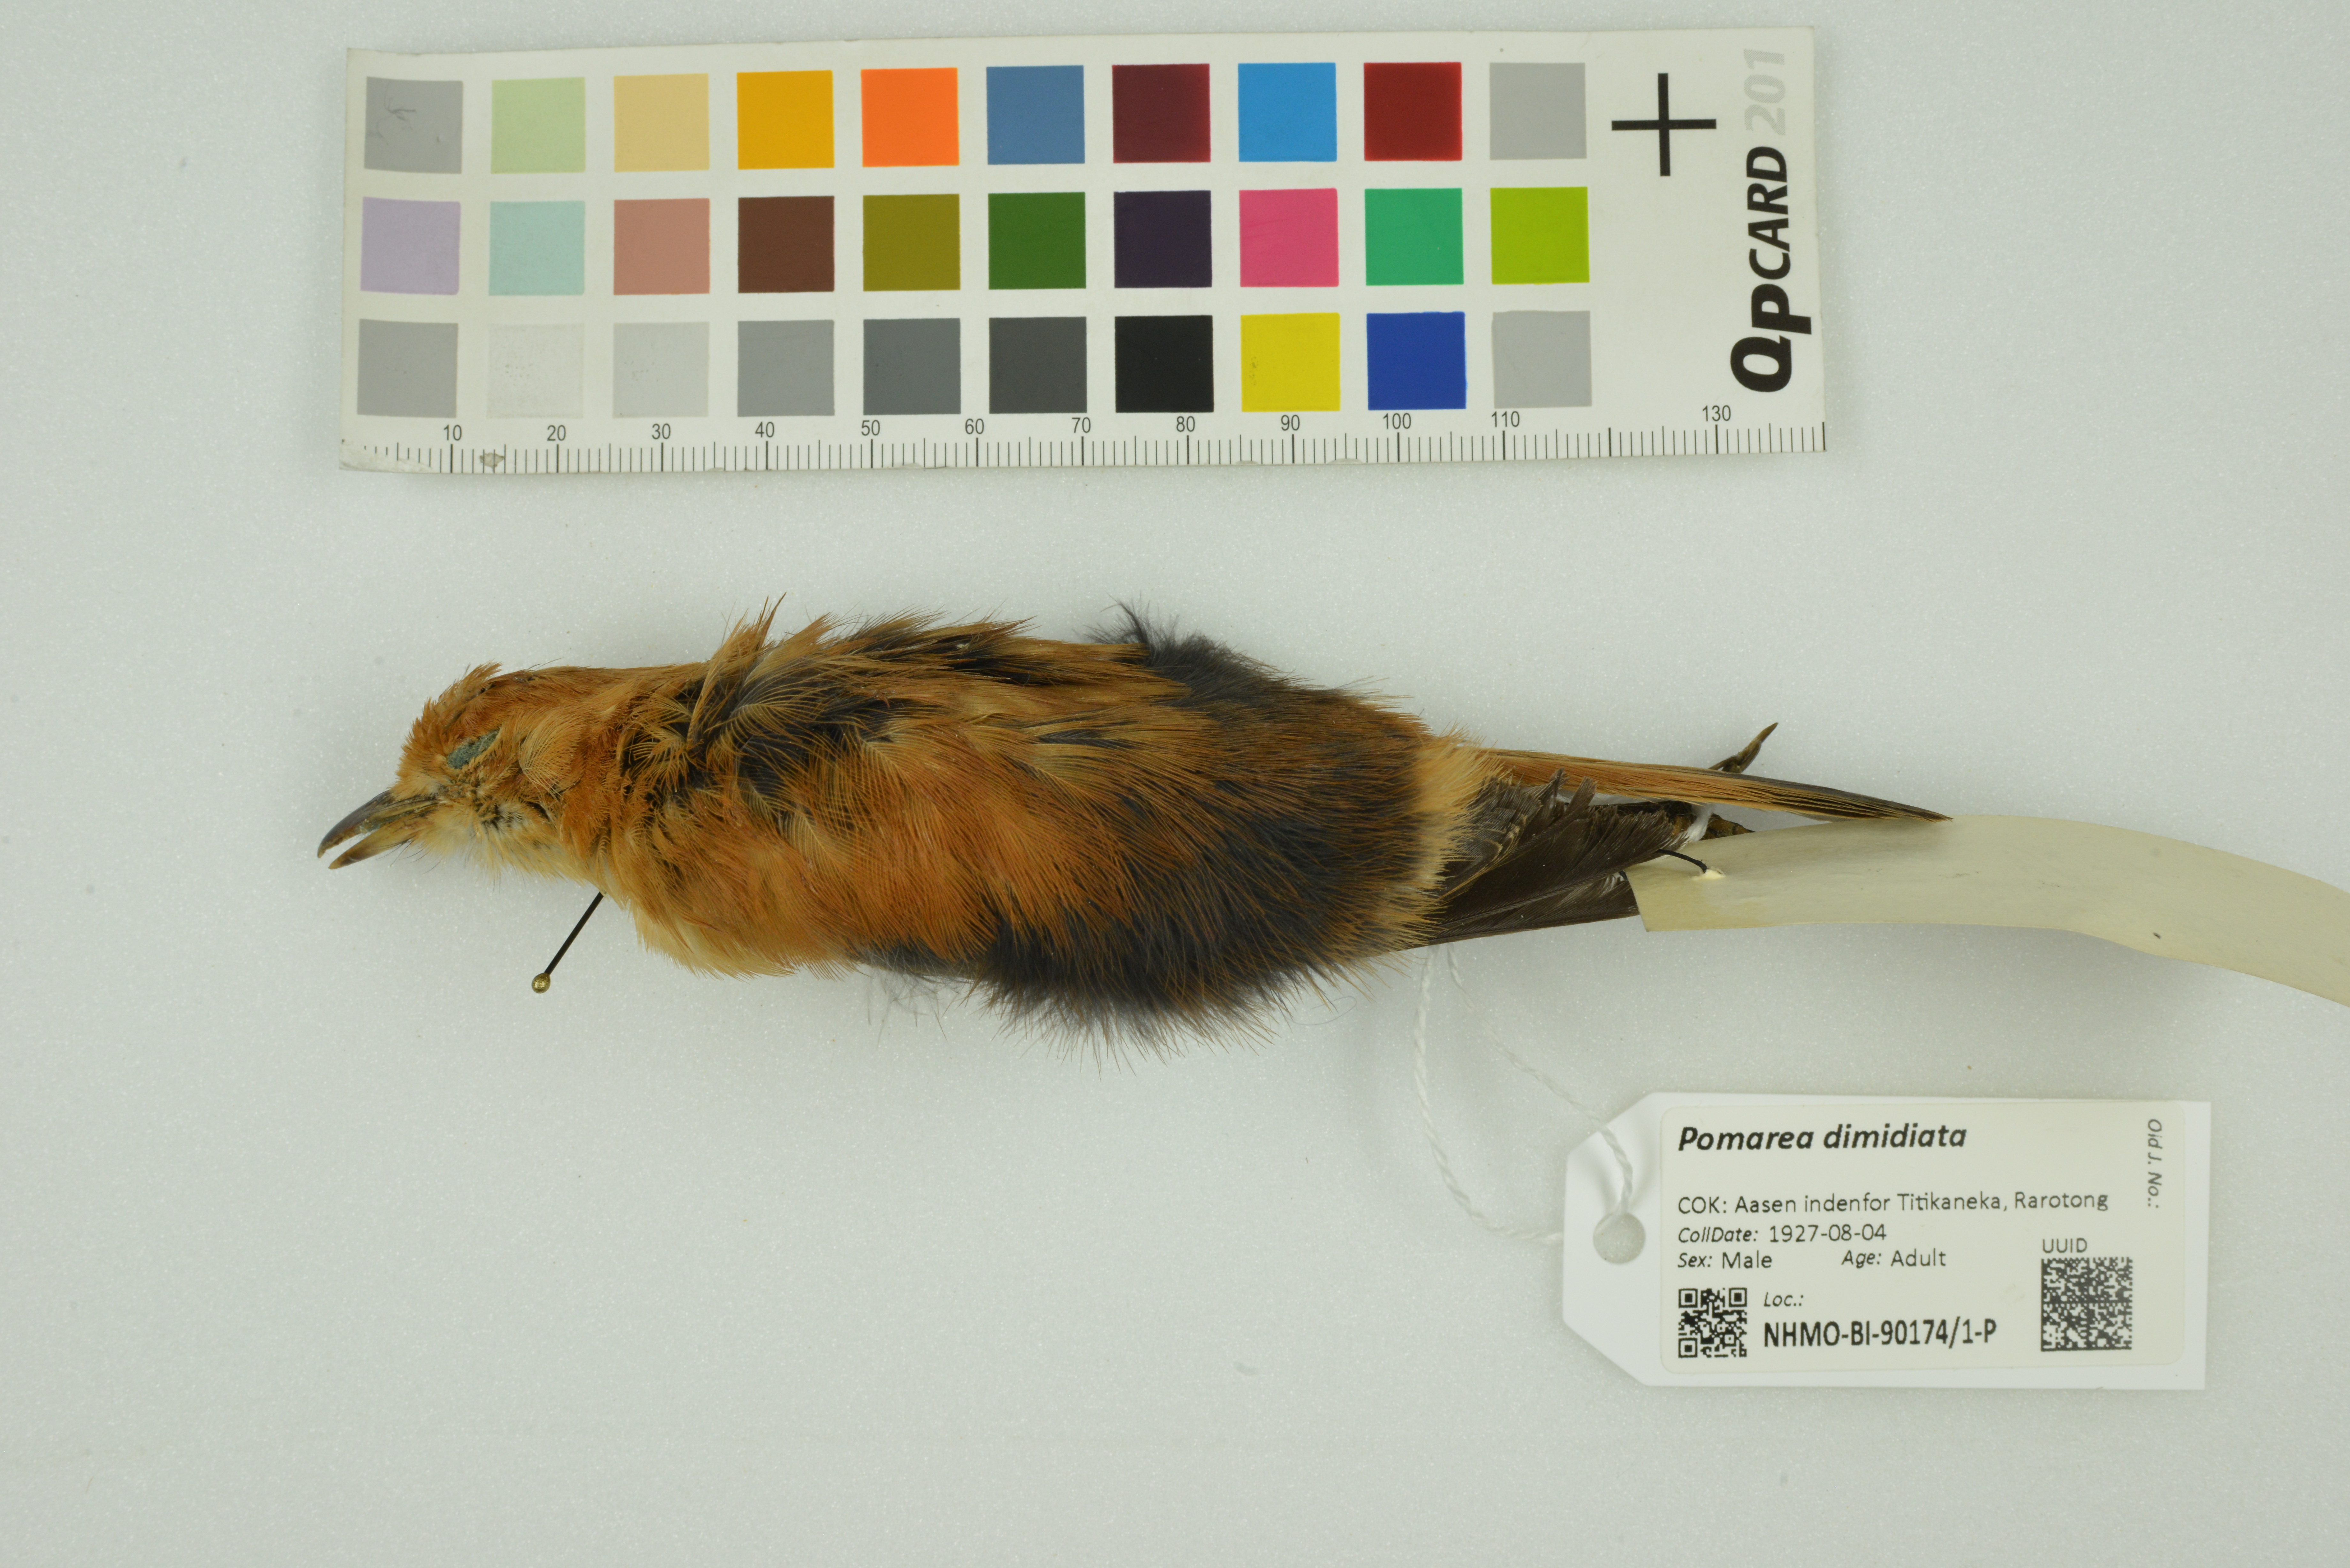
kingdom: Animalia
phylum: Chordata
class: Aves
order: Passeriformes
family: Monarchidae
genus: Pomarea
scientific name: Pomarea dimidiata
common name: Rarotonga monarch
